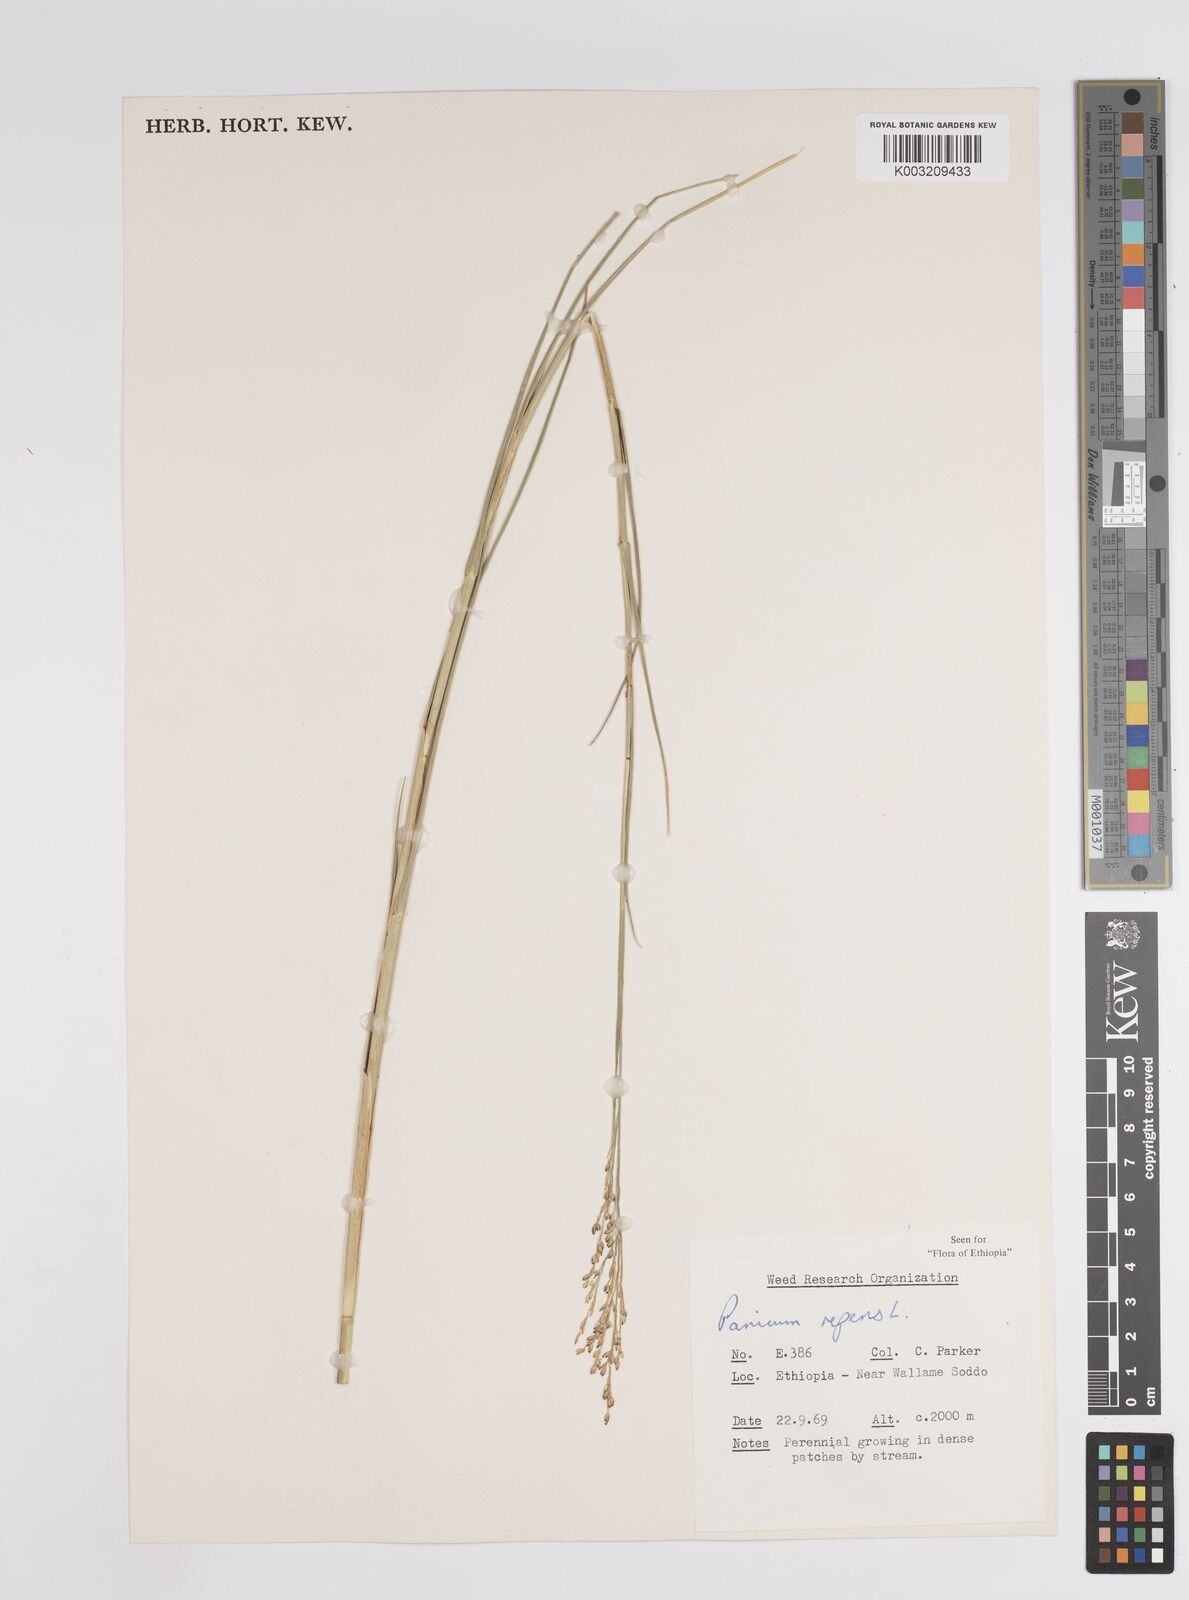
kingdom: Plantae
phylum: Tracheophyta
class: Liliopsida
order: Poales
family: Poaceae
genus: Panicum
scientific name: Panicum repens
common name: Torpedo grass
